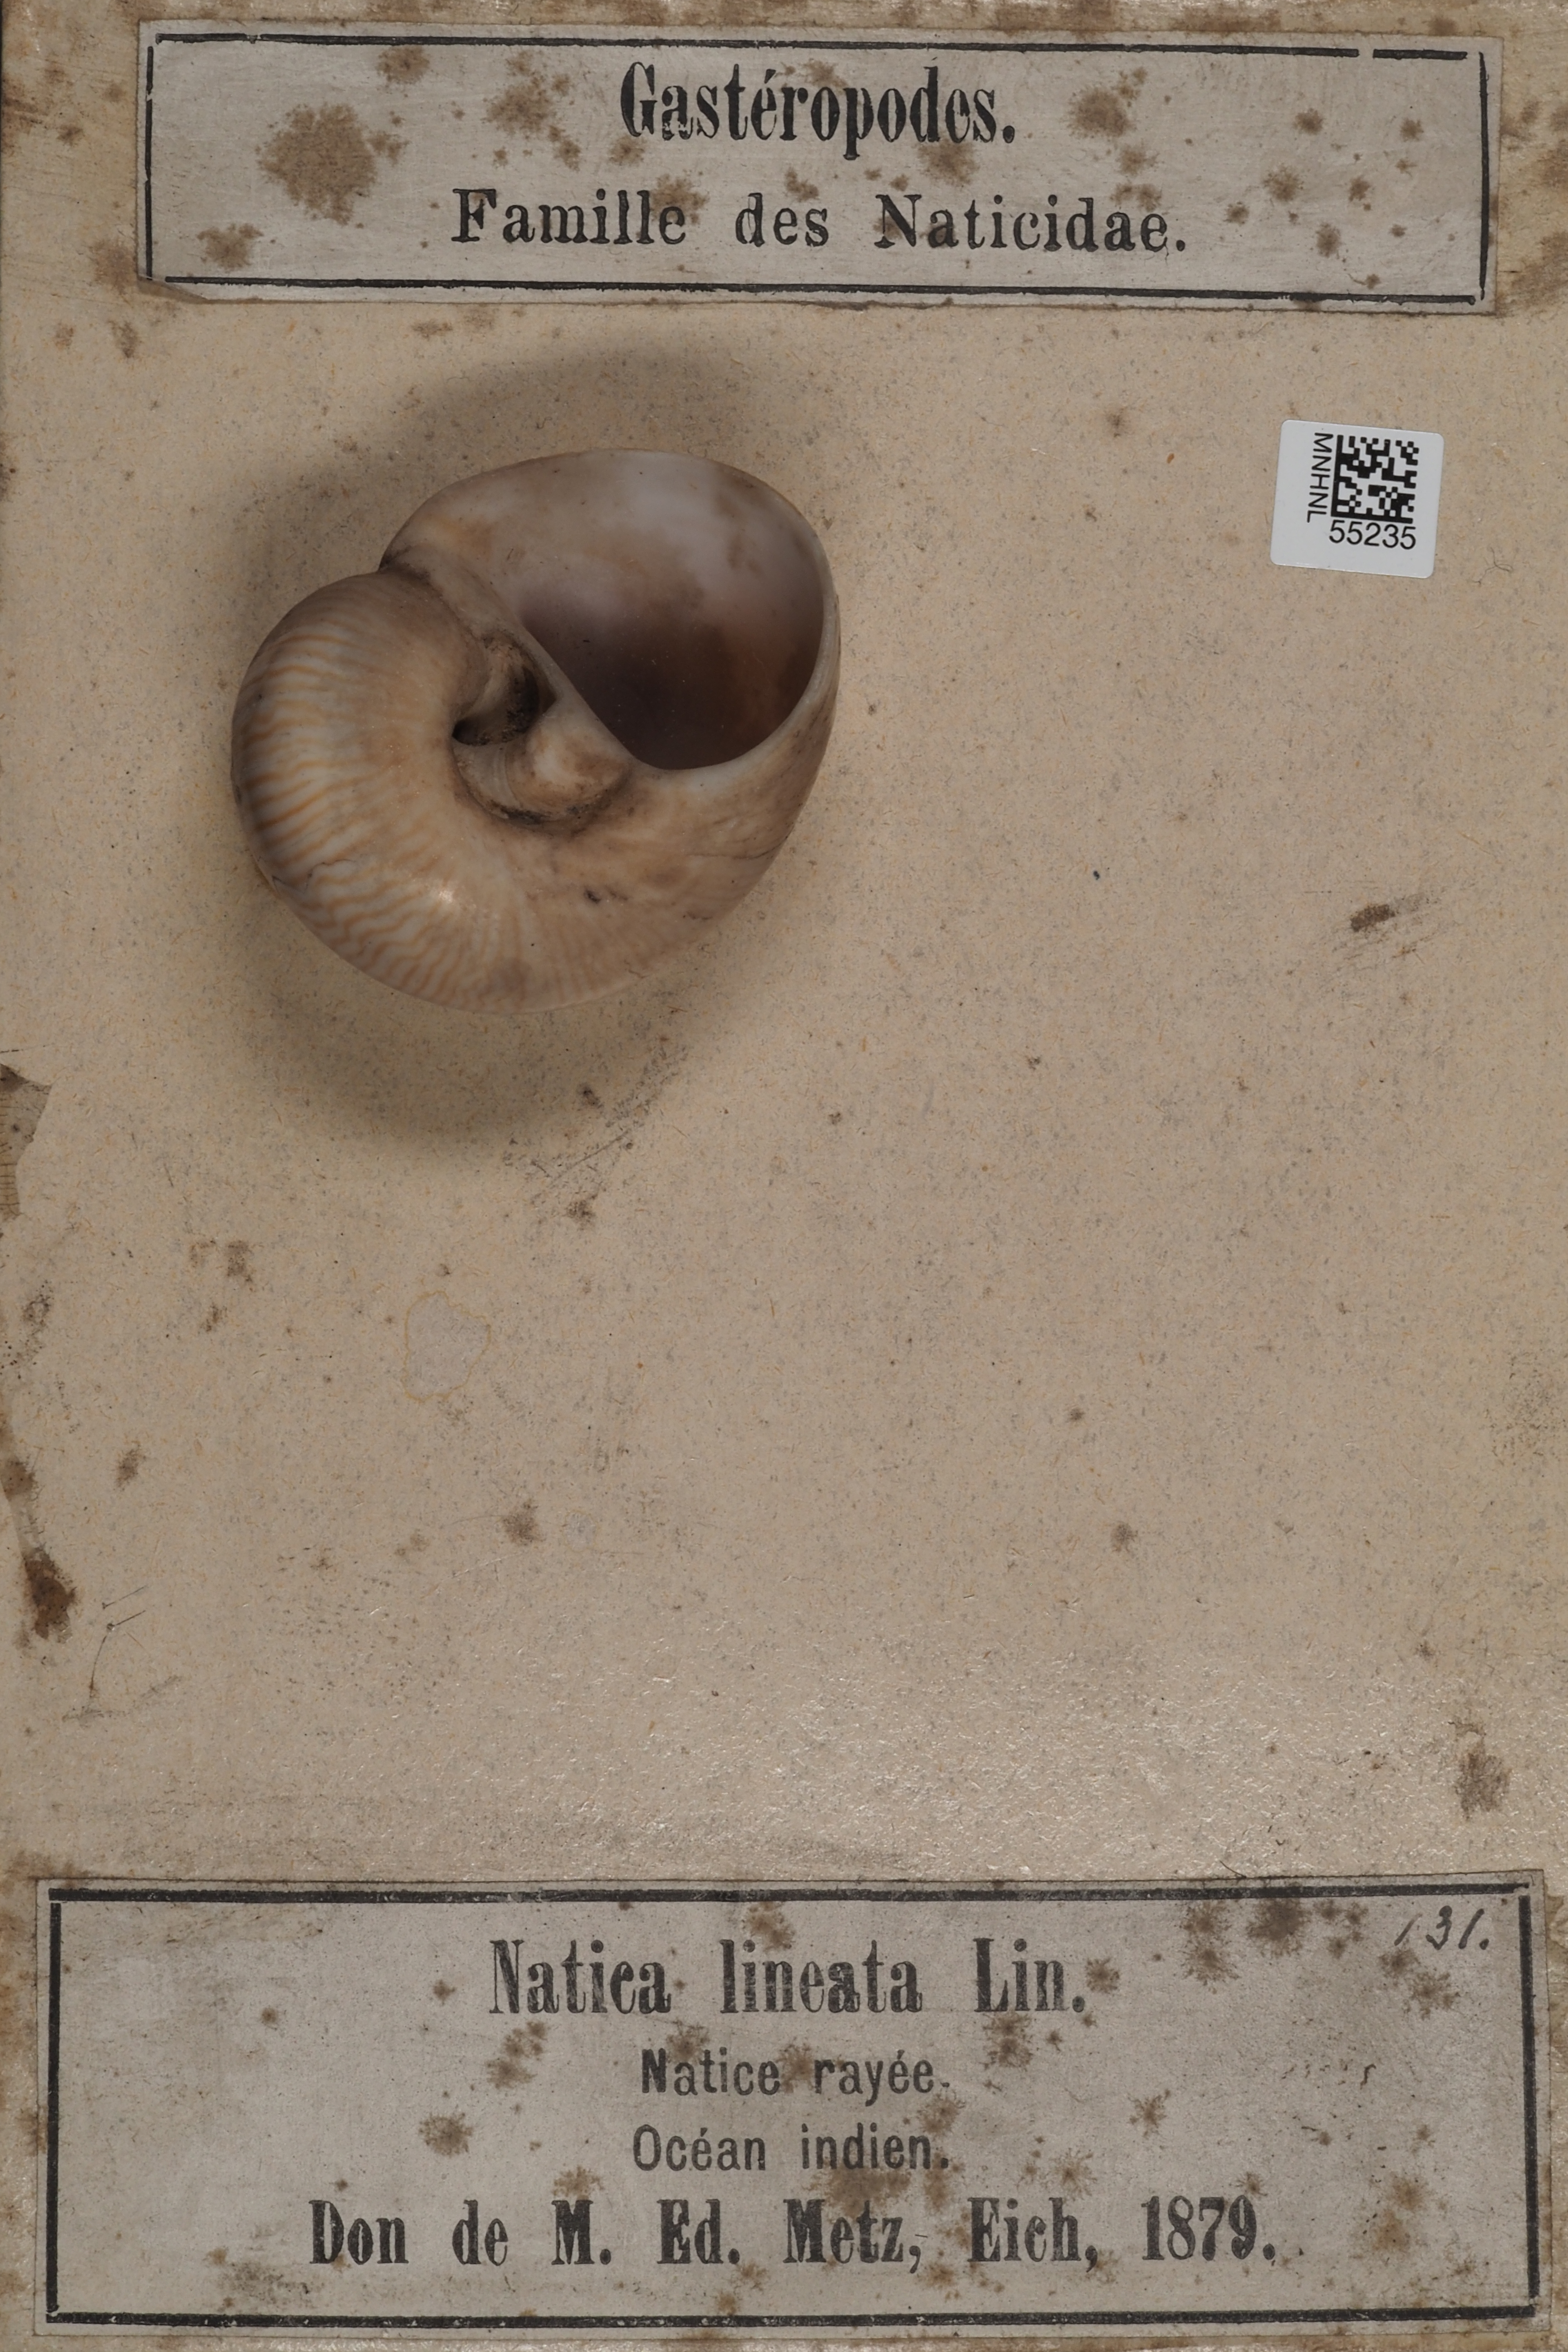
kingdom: Animalia
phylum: Mollusca
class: Gastropoda
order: Littorinimorpha
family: Naticidae
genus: Tanea
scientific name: Tanea lineata
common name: Lined moonsnail
